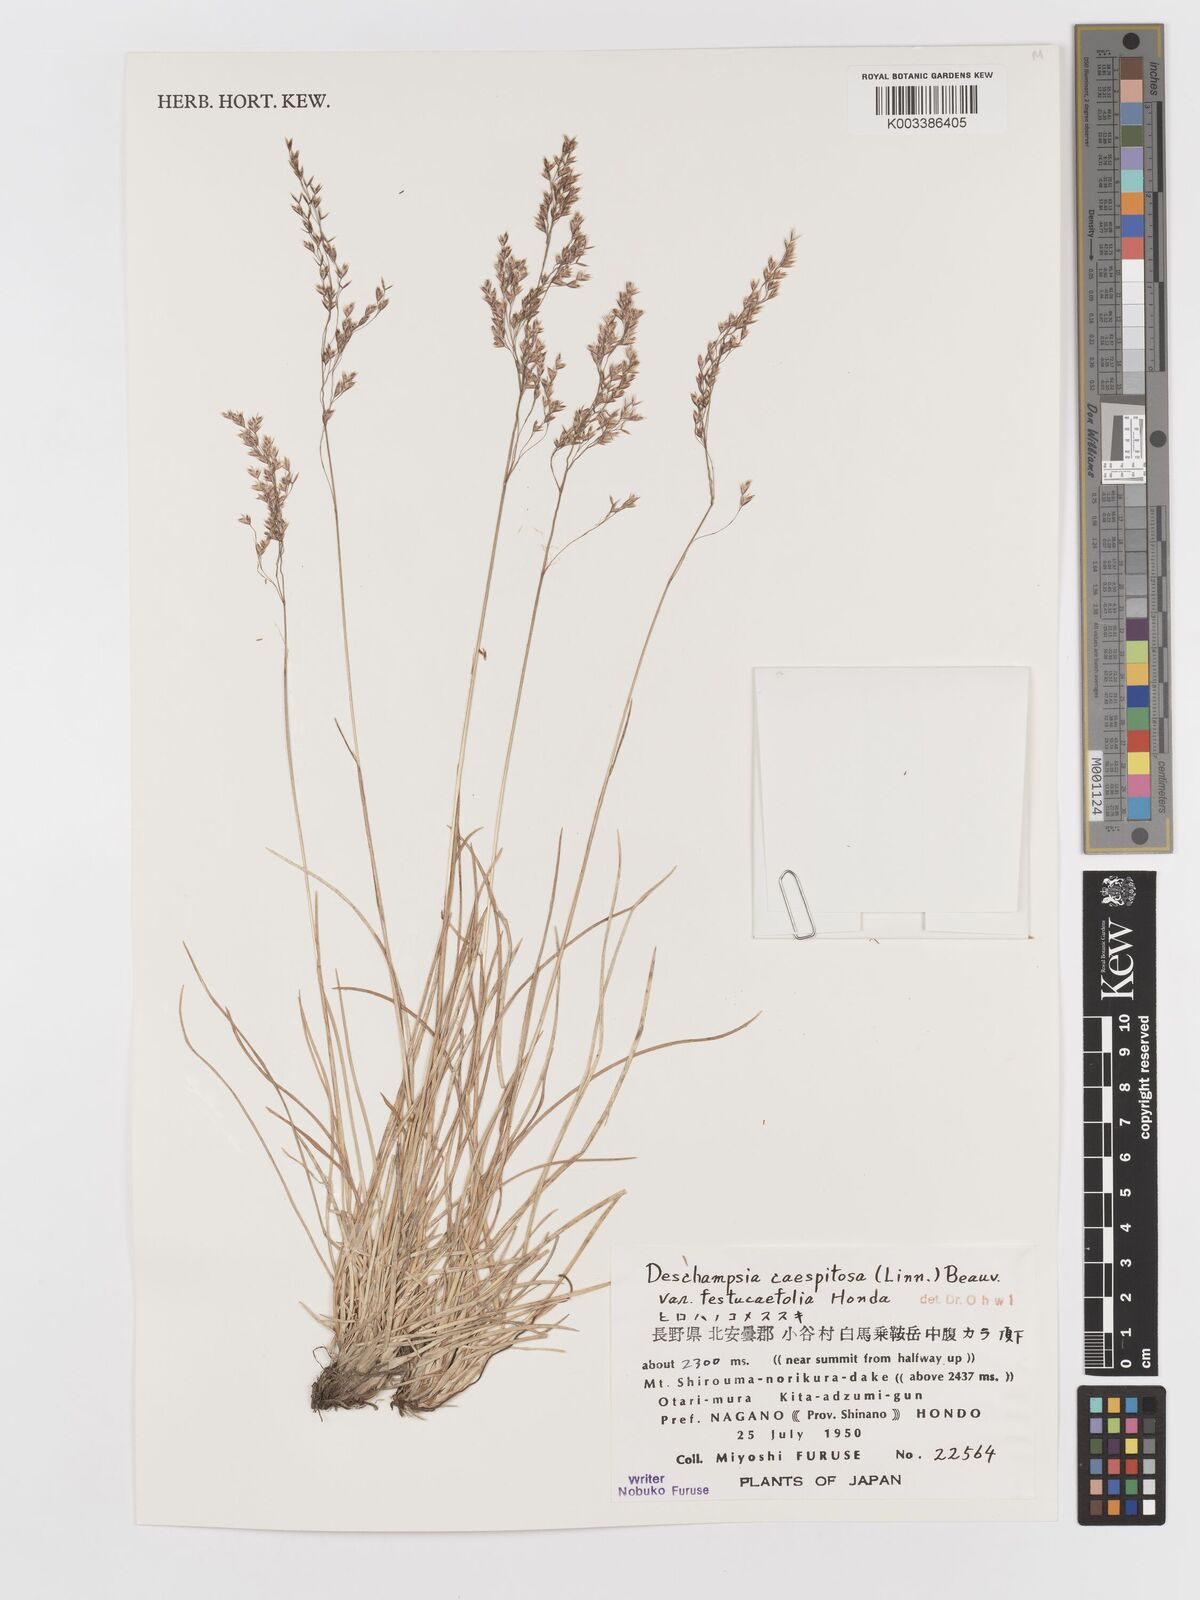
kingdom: Plantae
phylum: Tracheophyta
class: Liliopsida
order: Poales
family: Poaceae
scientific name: Poaceae
